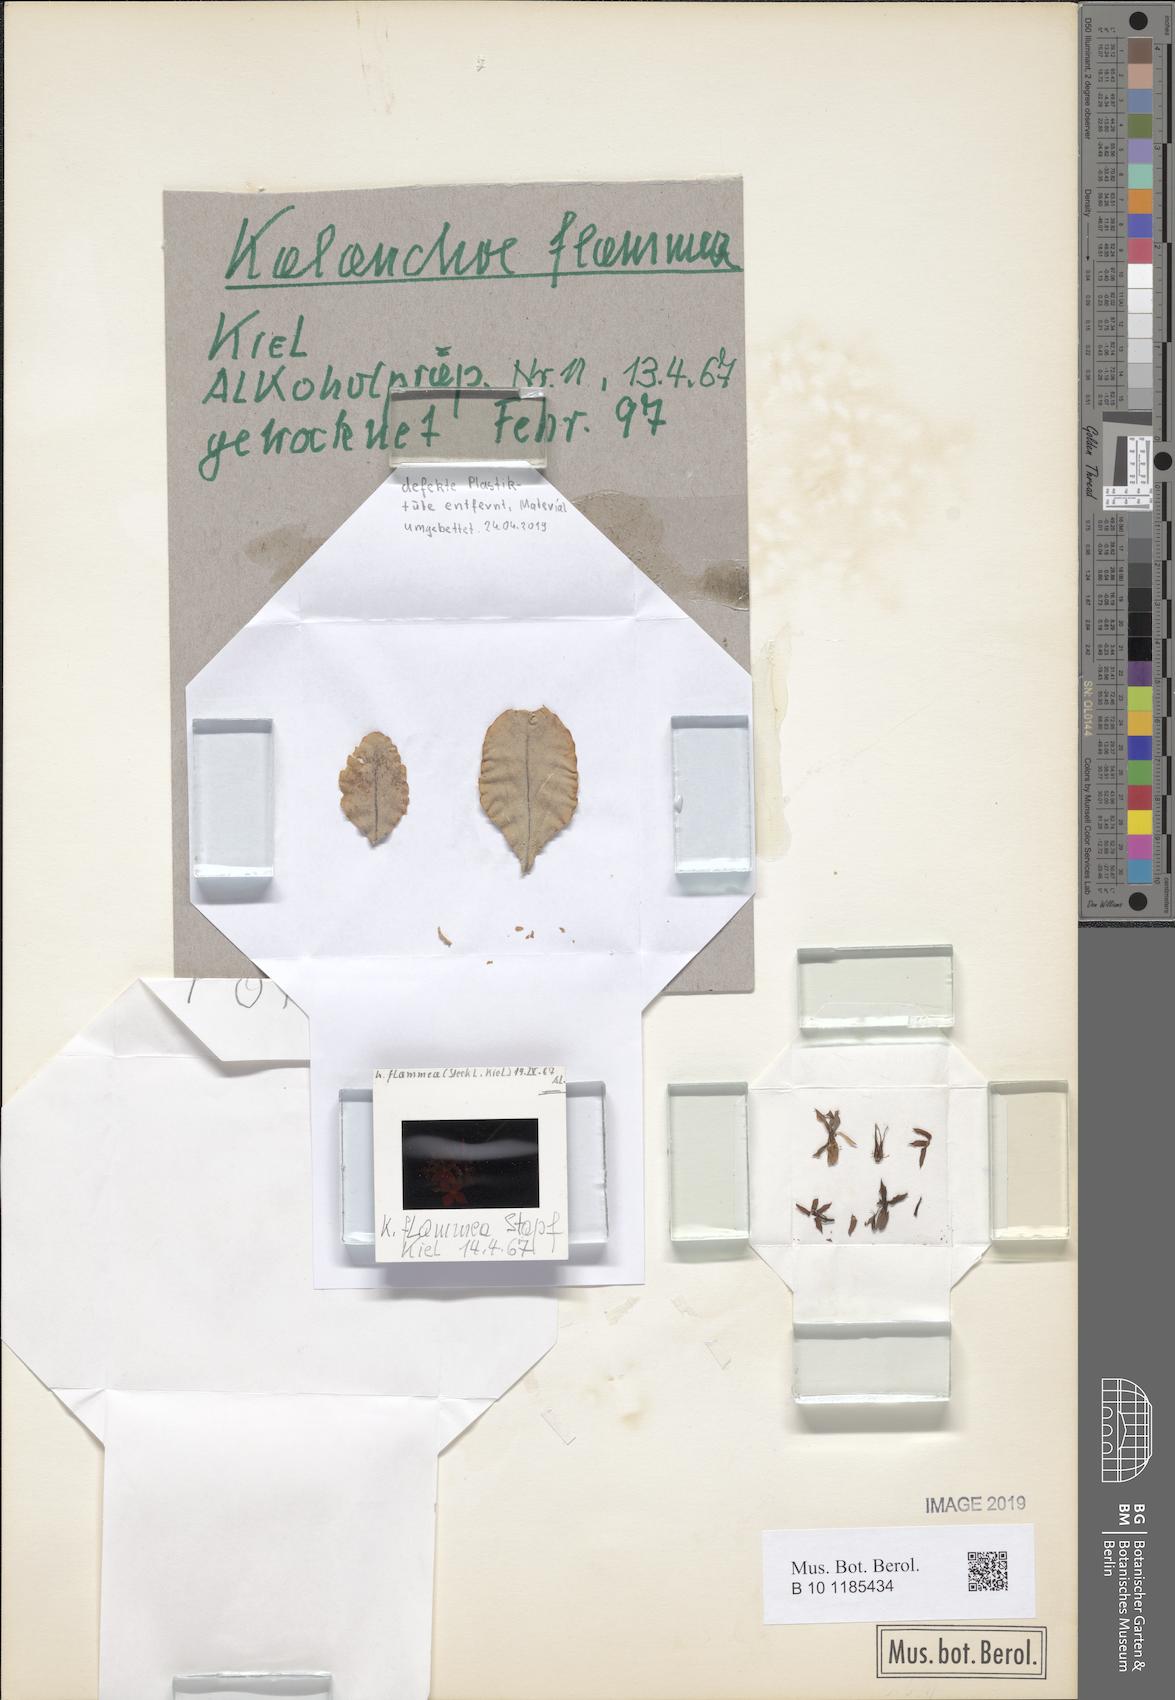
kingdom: Plantae
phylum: Tracheophyta
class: Magnoliopsida
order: Saxifragales
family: Crassulaceae
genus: Kalanchoe
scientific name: Kalanchoe glaucescens
